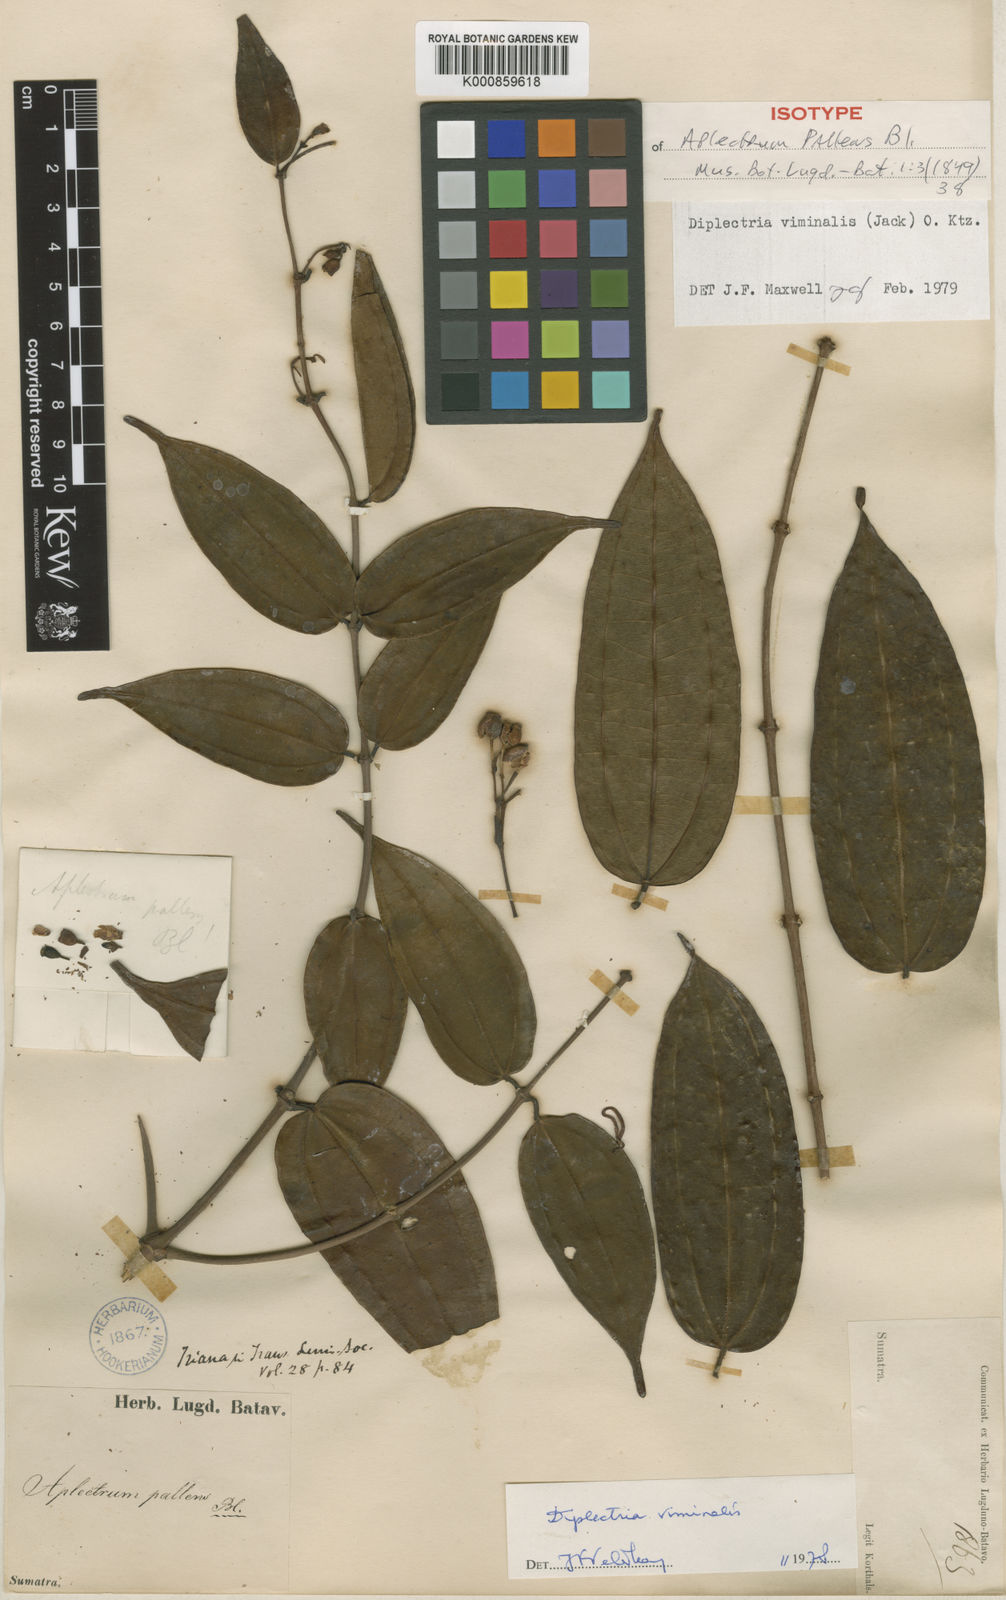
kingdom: Plantae
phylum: Tracheophyta
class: Magnoliopsida
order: Myrtales
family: Melastomataceae
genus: Diplectria
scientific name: Diplectria viminalis
